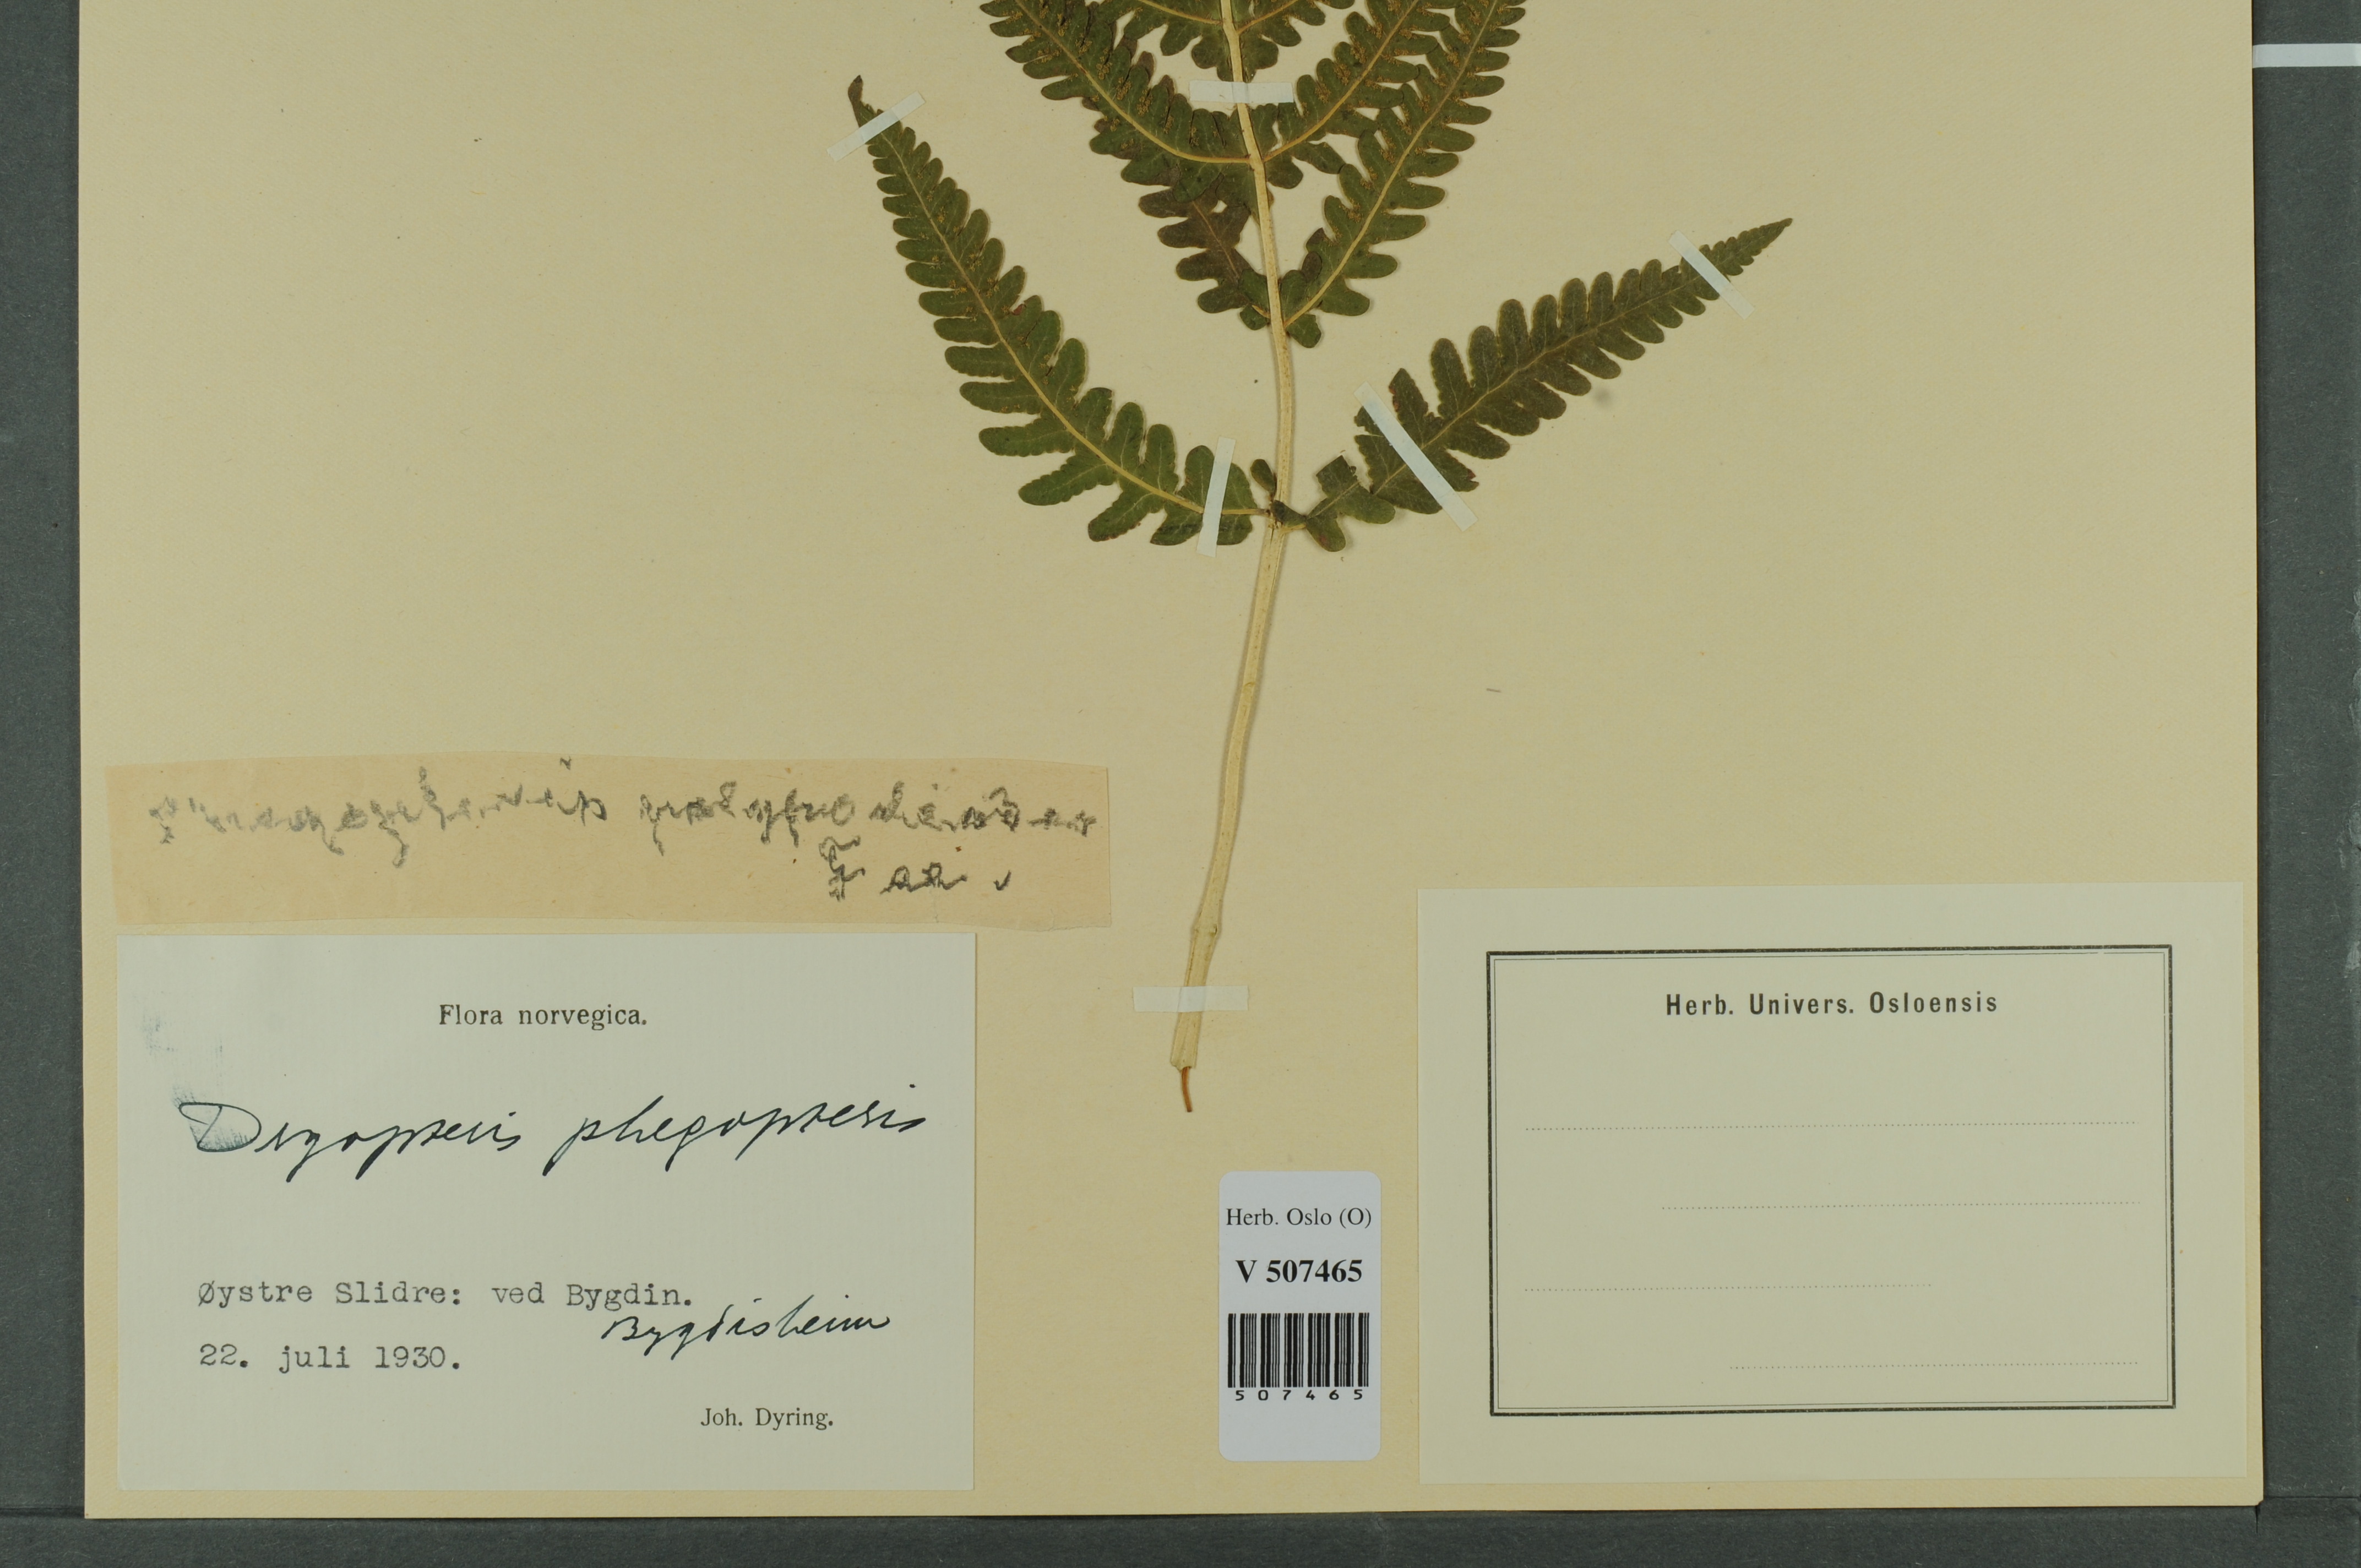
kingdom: Plantae
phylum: Tracheophyta
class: Polypodiopsida
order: Polypodiales
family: Thelypteridaceae
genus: Phegopteris
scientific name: Phegopteris connectilis
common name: Beech fern
